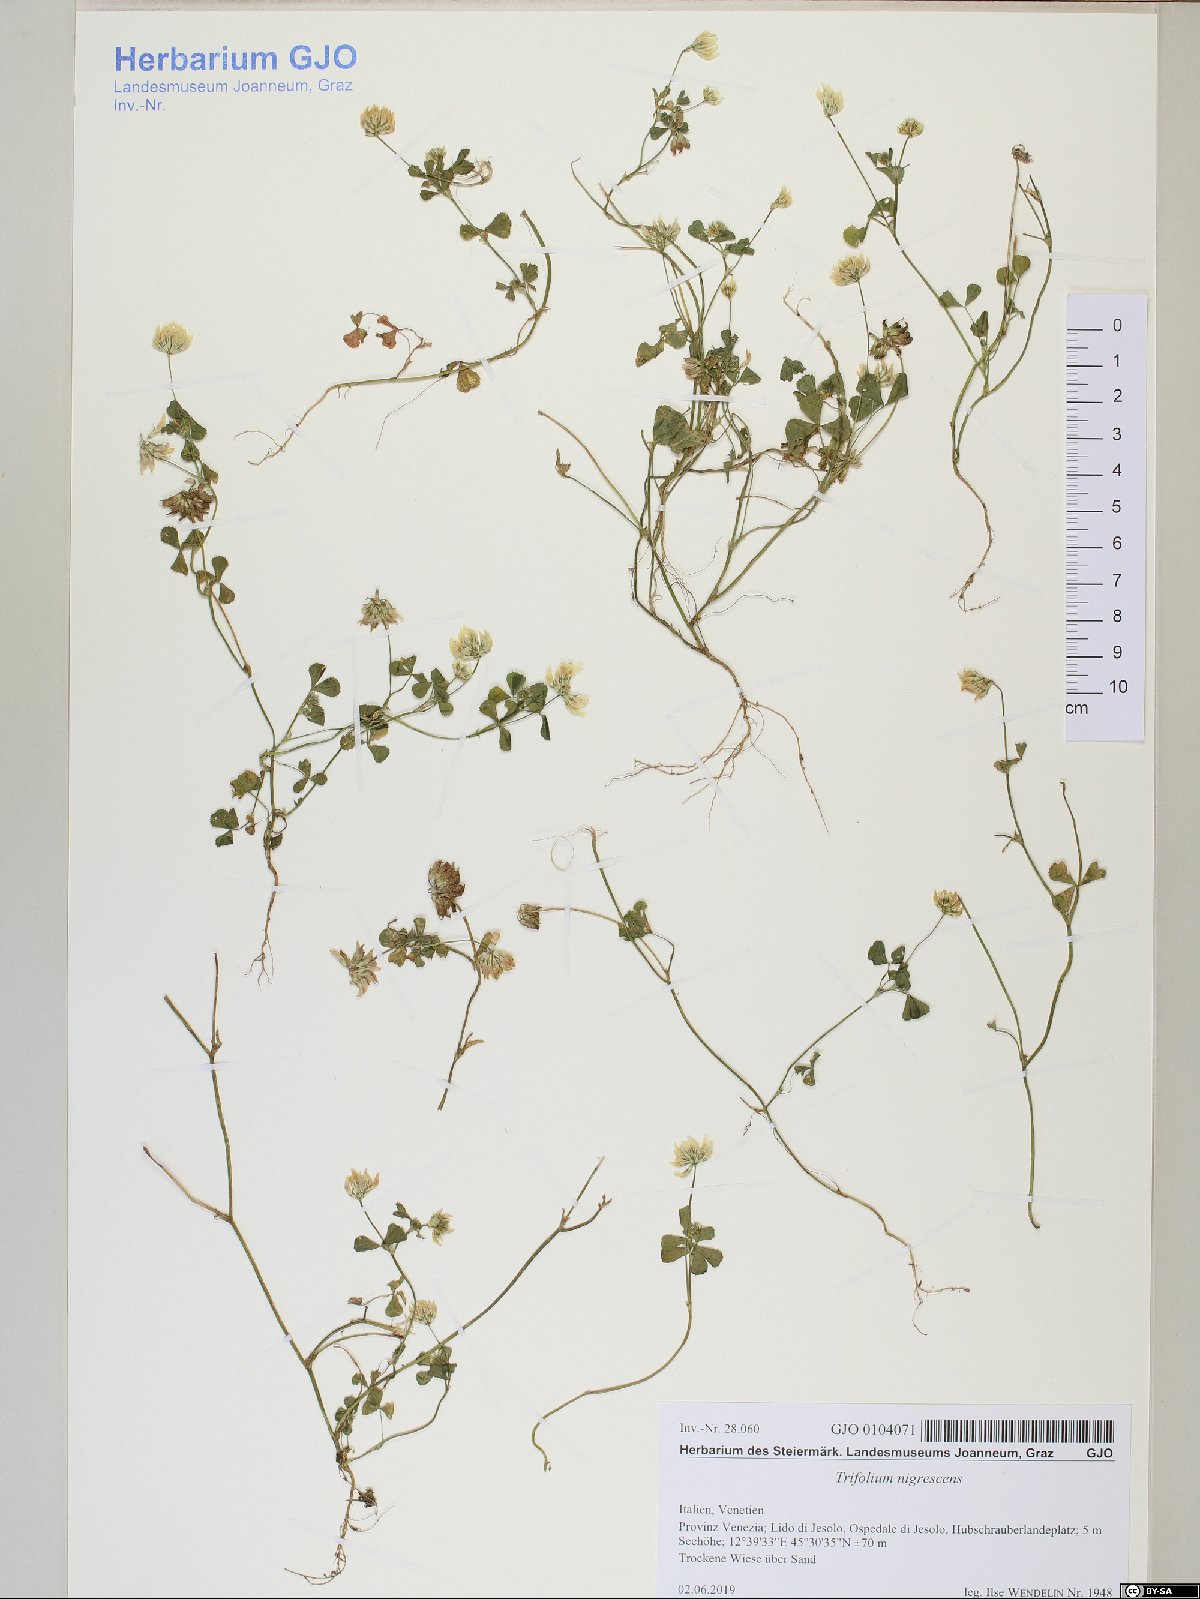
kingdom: Plantae
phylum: Tracheophyta
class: Magnoliopsida
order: Fabales
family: Fabaceae
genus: Trifolium
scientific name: Trifolium nigrescens
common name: Small white clover
